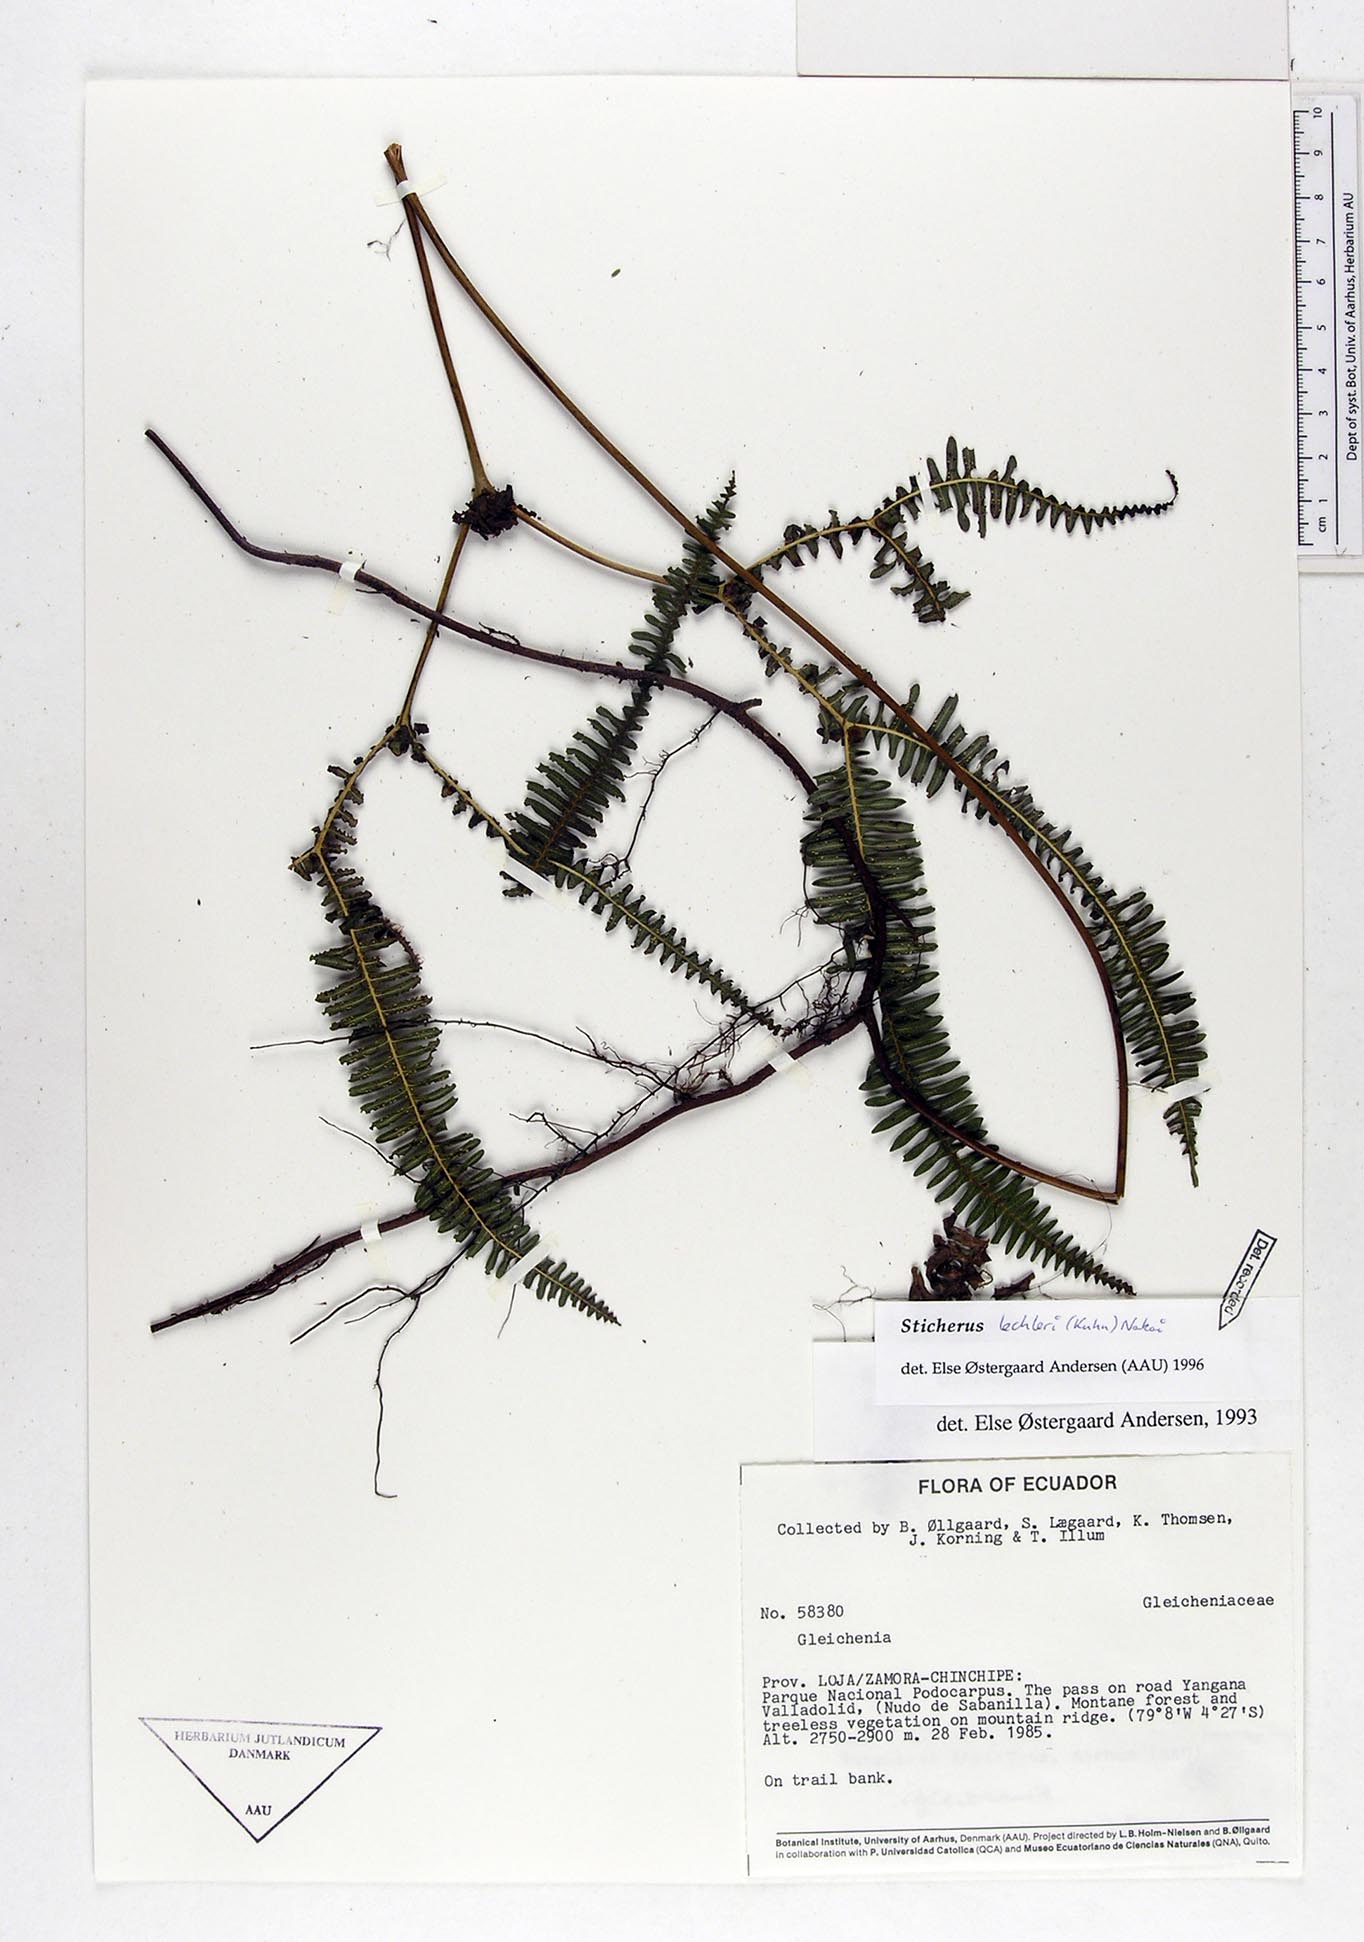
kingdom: Plantae
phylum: Tracheophyta
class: Polypodiopsida
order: Gleicheniales
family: Gleicheniaceae
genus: Sticherus
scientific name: Sticherus lechleri
